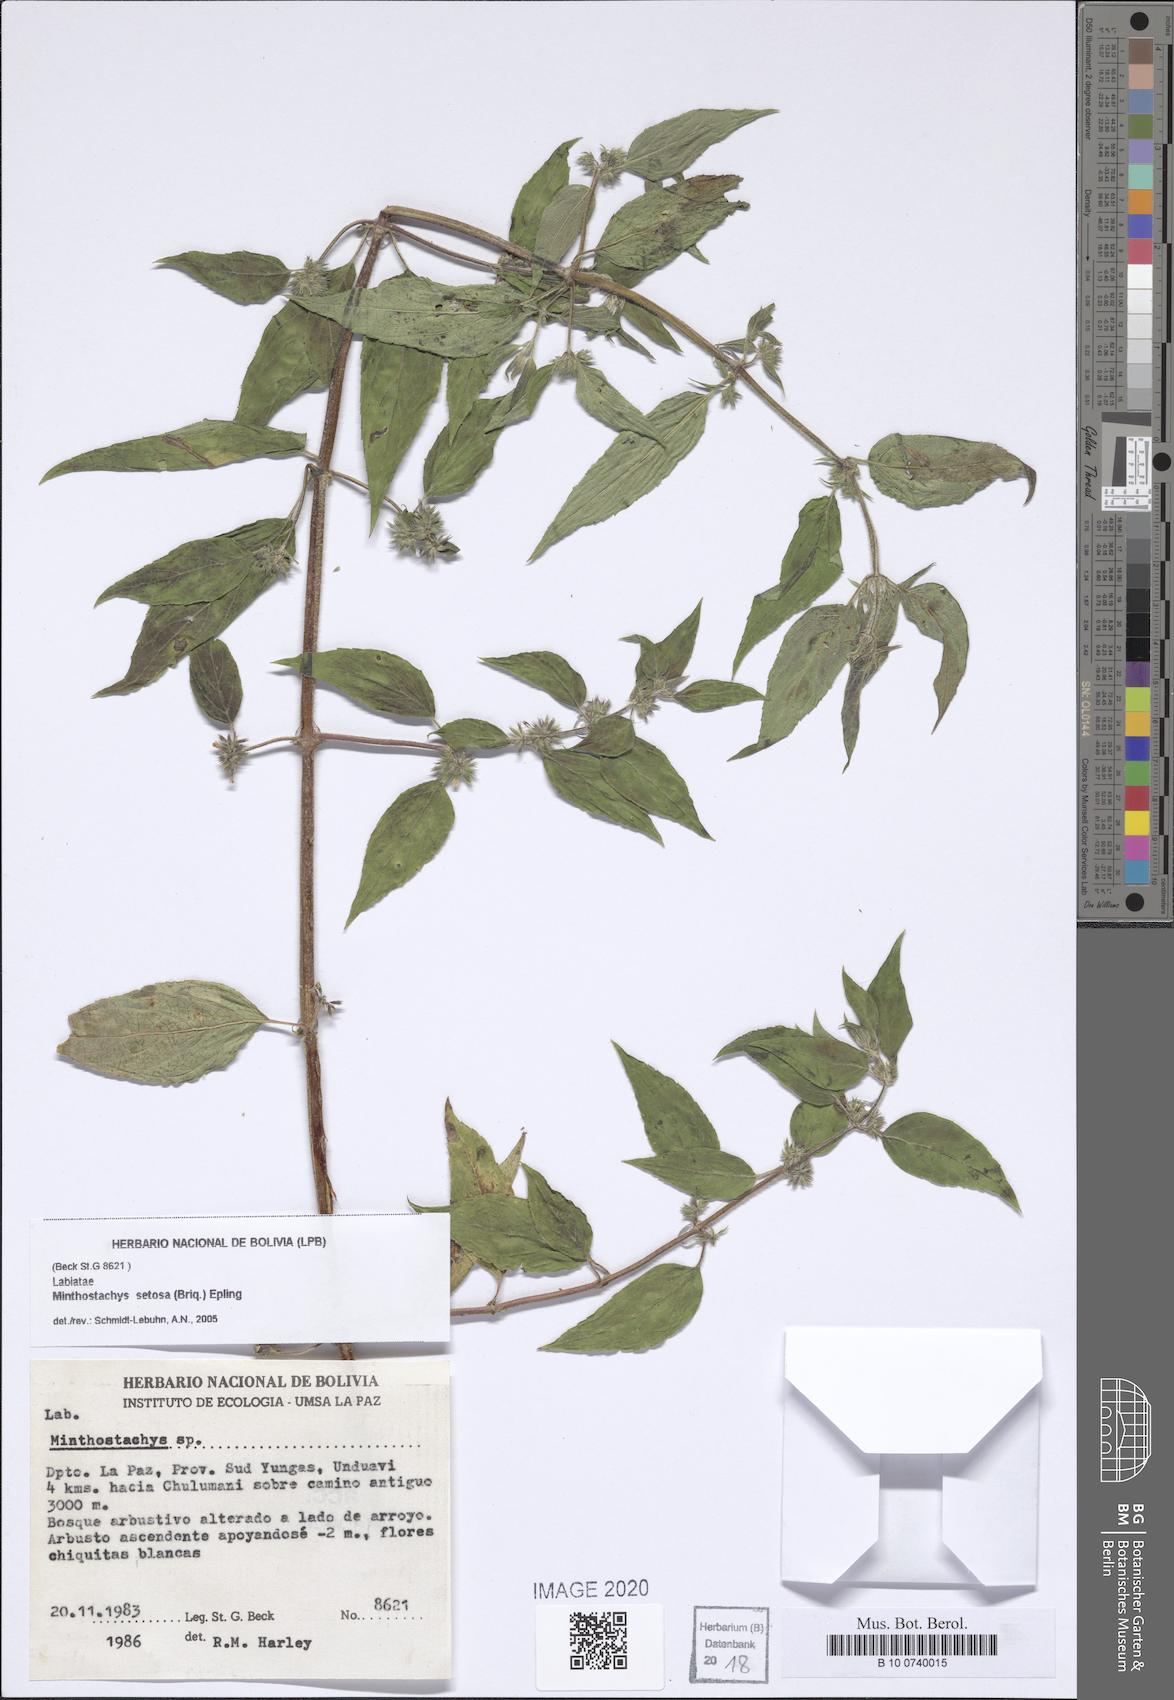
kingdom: Plantae
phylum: Tracheophyta
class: Magnoliopsida
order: Lamiales
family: Lamiaceae
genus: Minthostachys
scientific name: Minthostachys setosa
